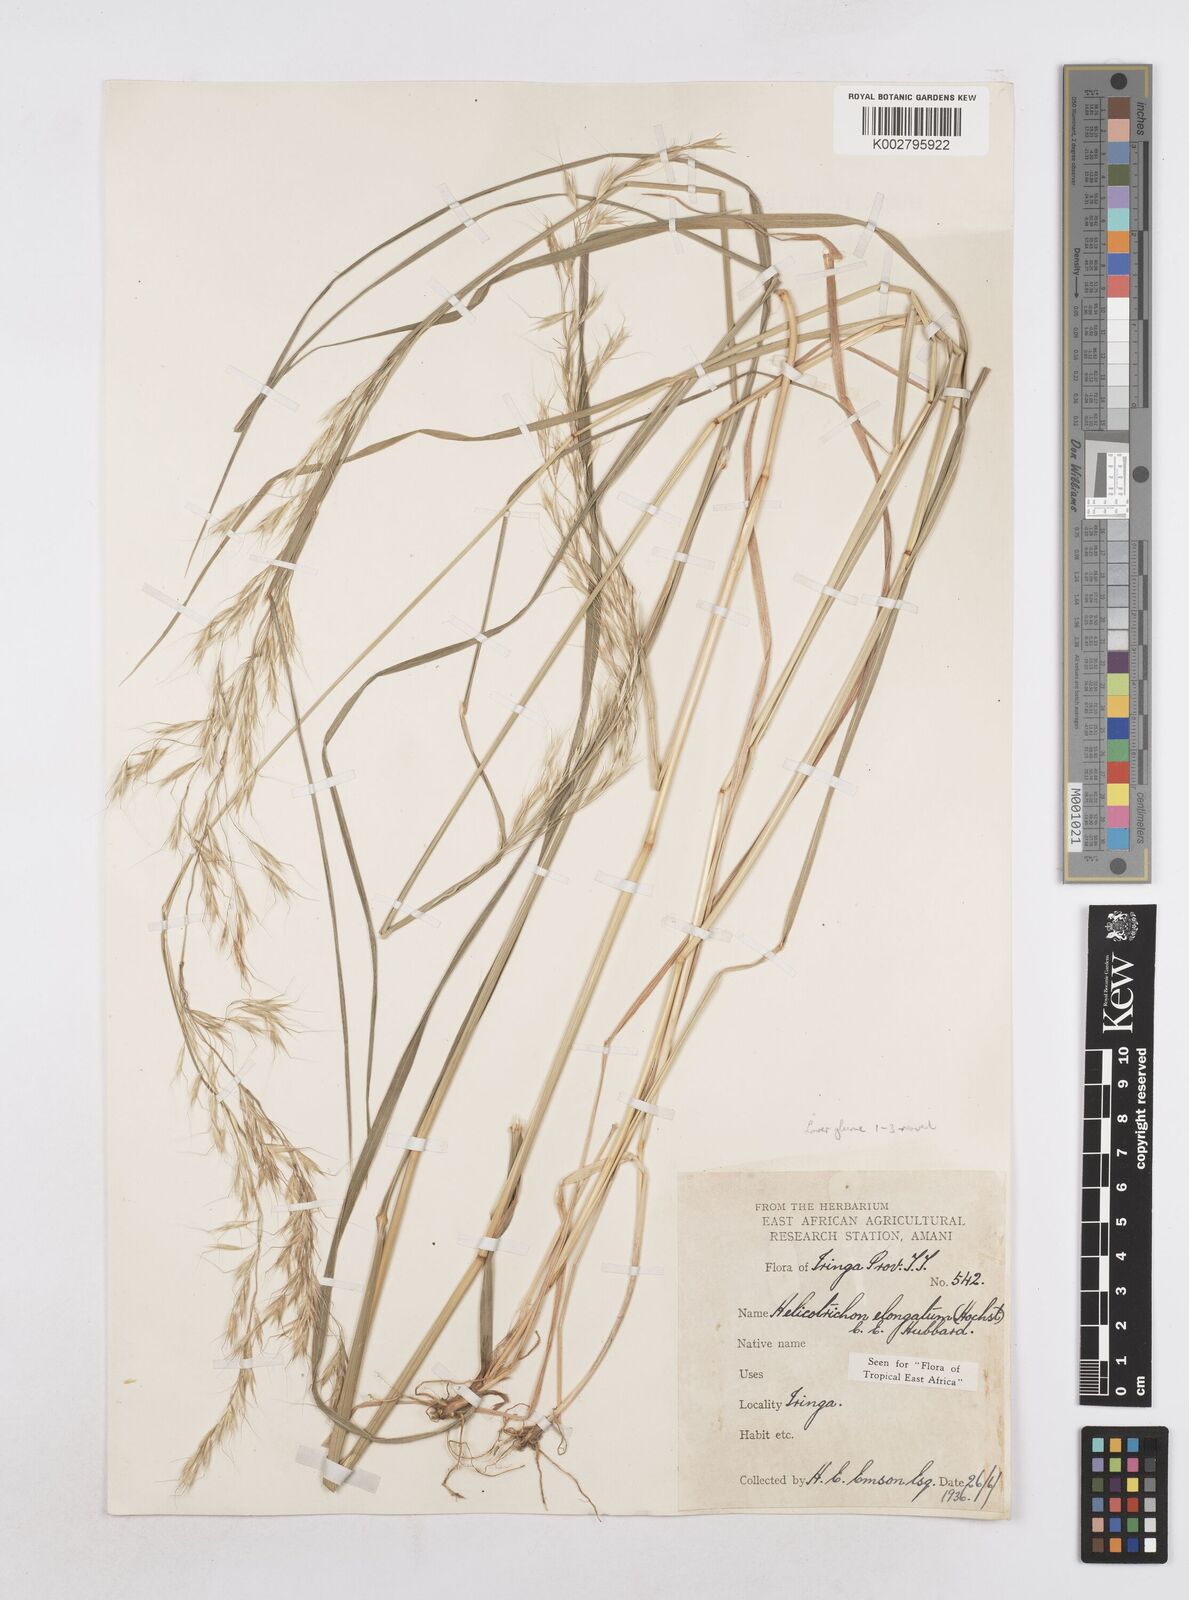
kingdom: Plantae
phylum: Tracheophyta
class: Liliopsida
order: Poales
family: Poaceae
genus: Trisetopsis
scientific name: Trisetopsis elongata
